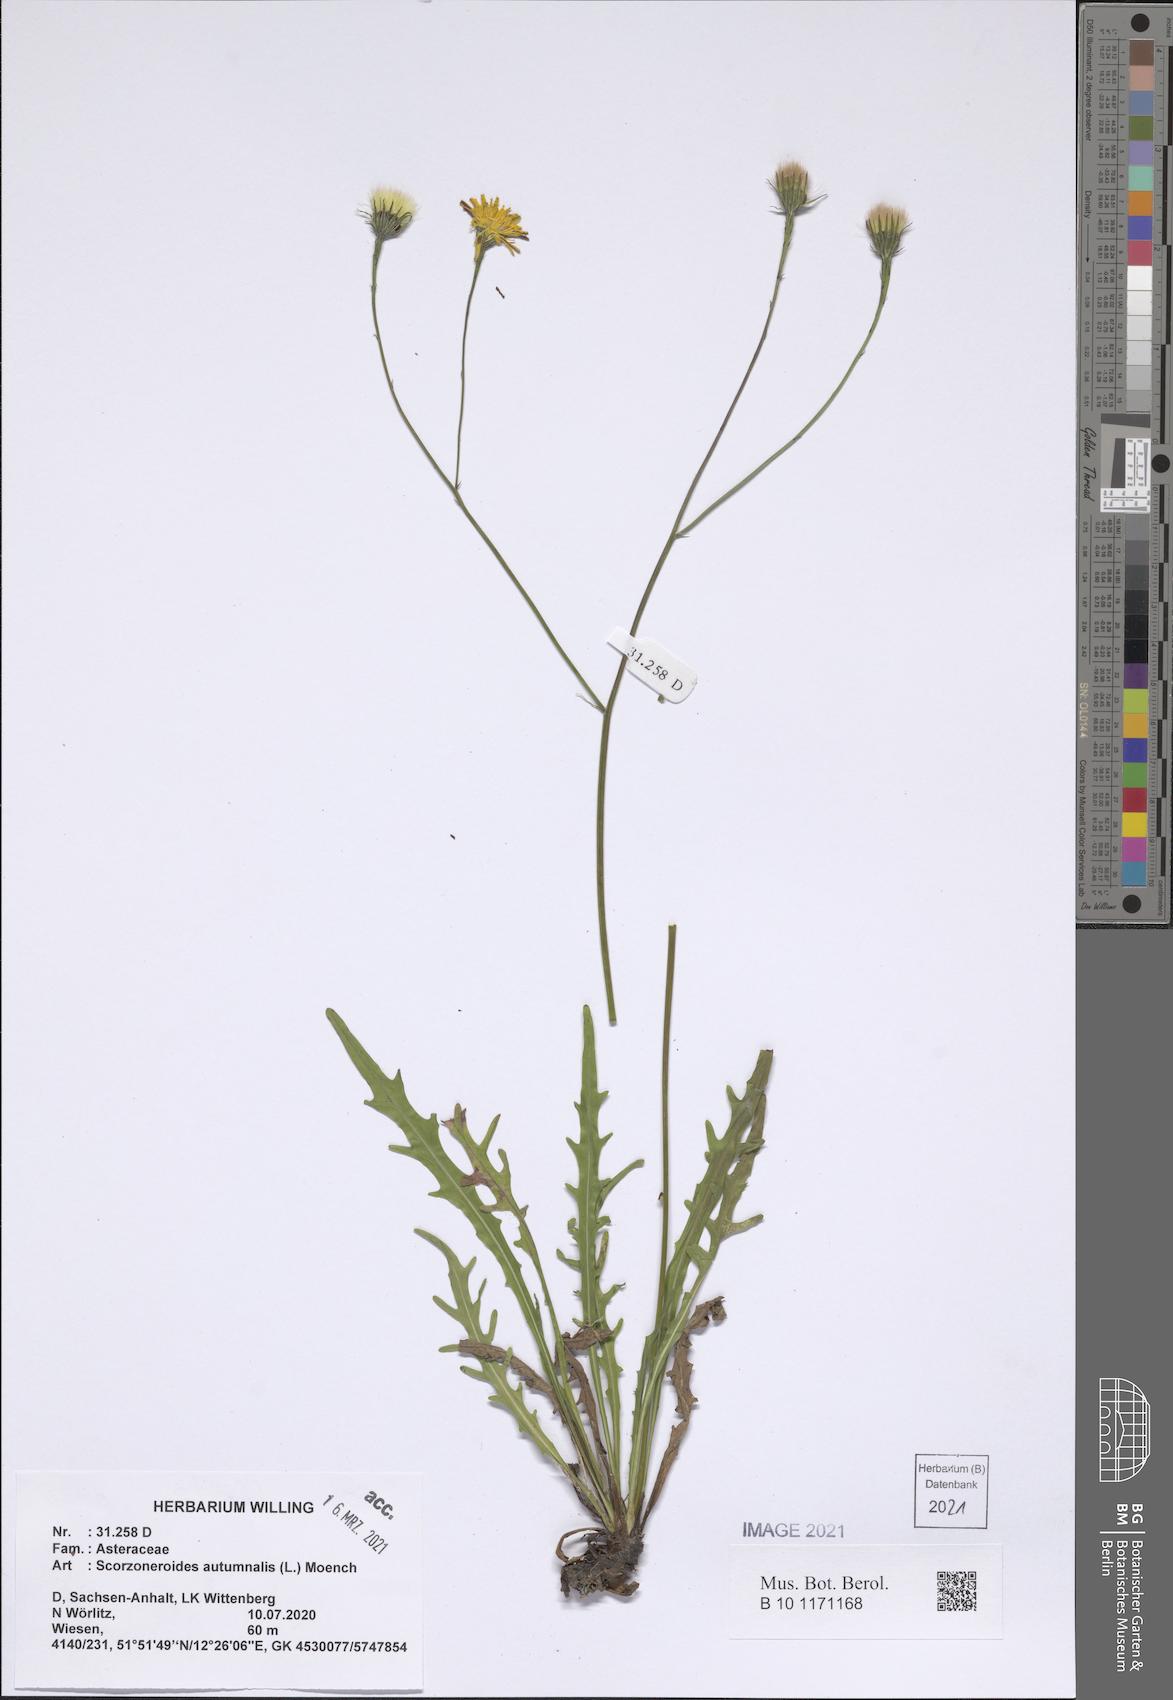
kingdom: Plantae
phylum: Tracheophyta
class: Magnoliopsida
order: Asterales
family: Asteraceae
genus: Scorzoneroides
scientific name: Scorzoneroides autumnalis
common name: Autumn hawkbit
